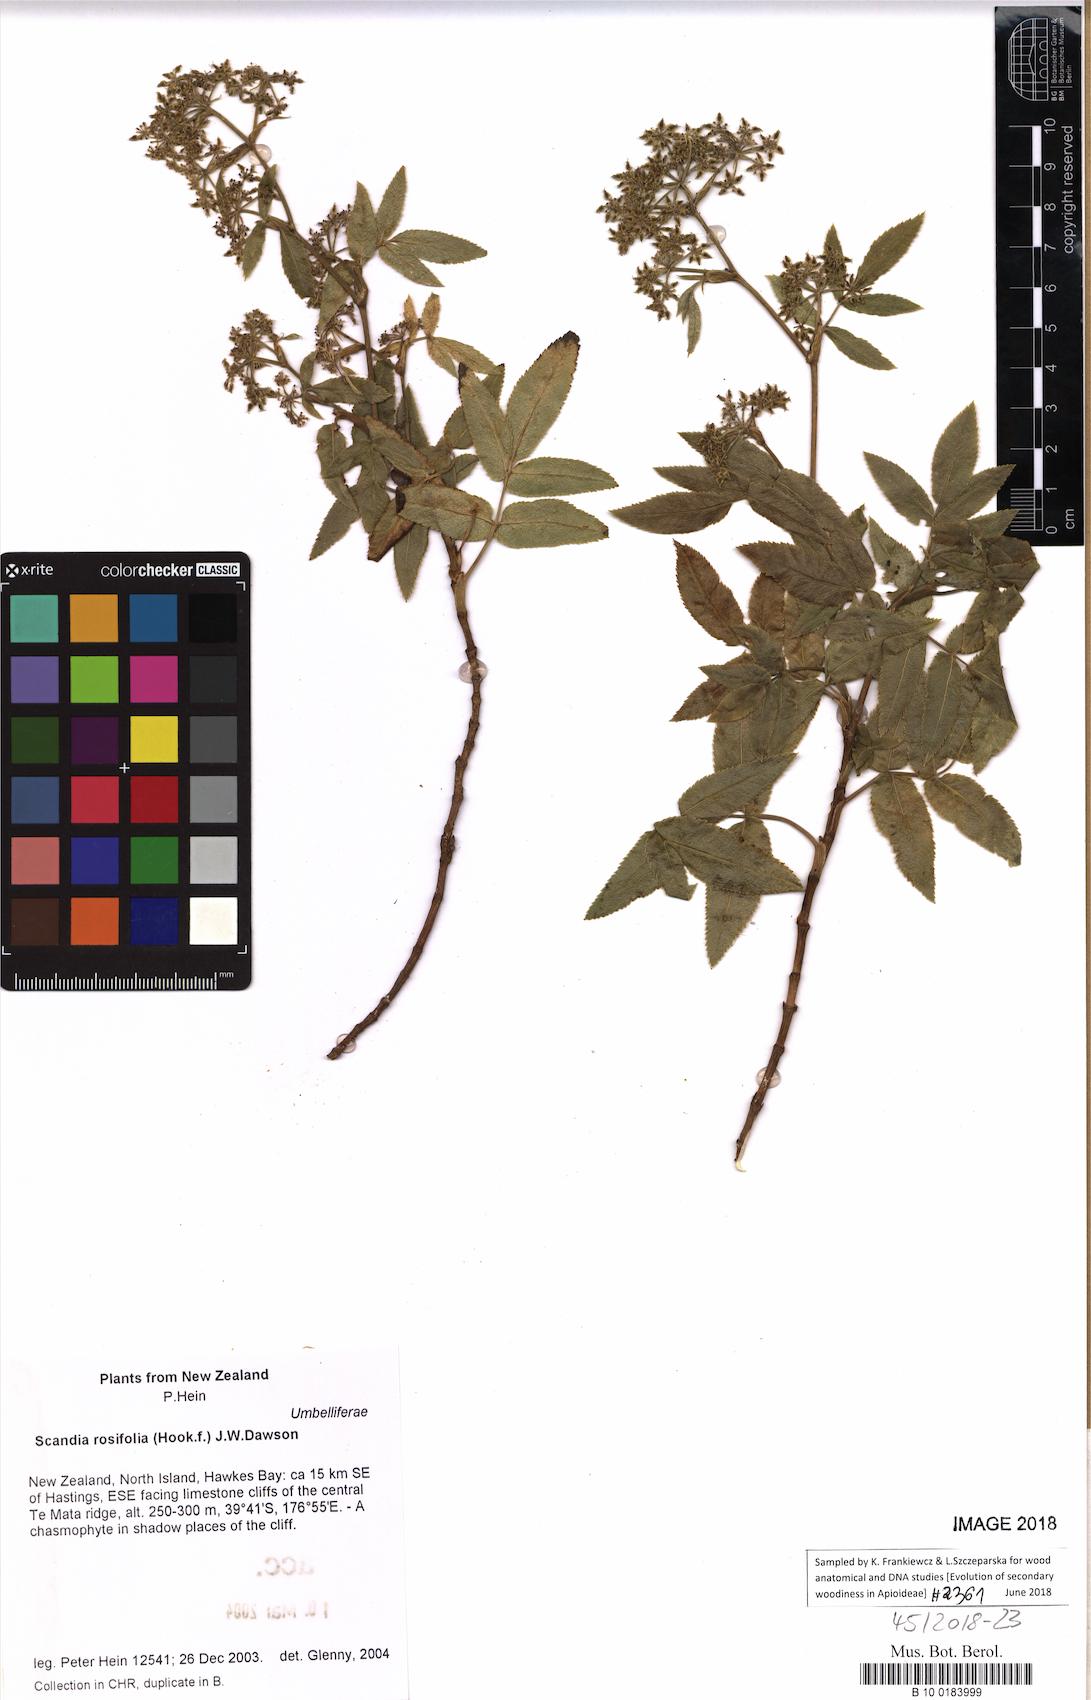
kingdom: Plantae
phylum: Tracheophyta
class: Magnoliopsida
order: Apiales
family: Apiaceae
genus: Scandia
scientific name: Scandia rosifolia
